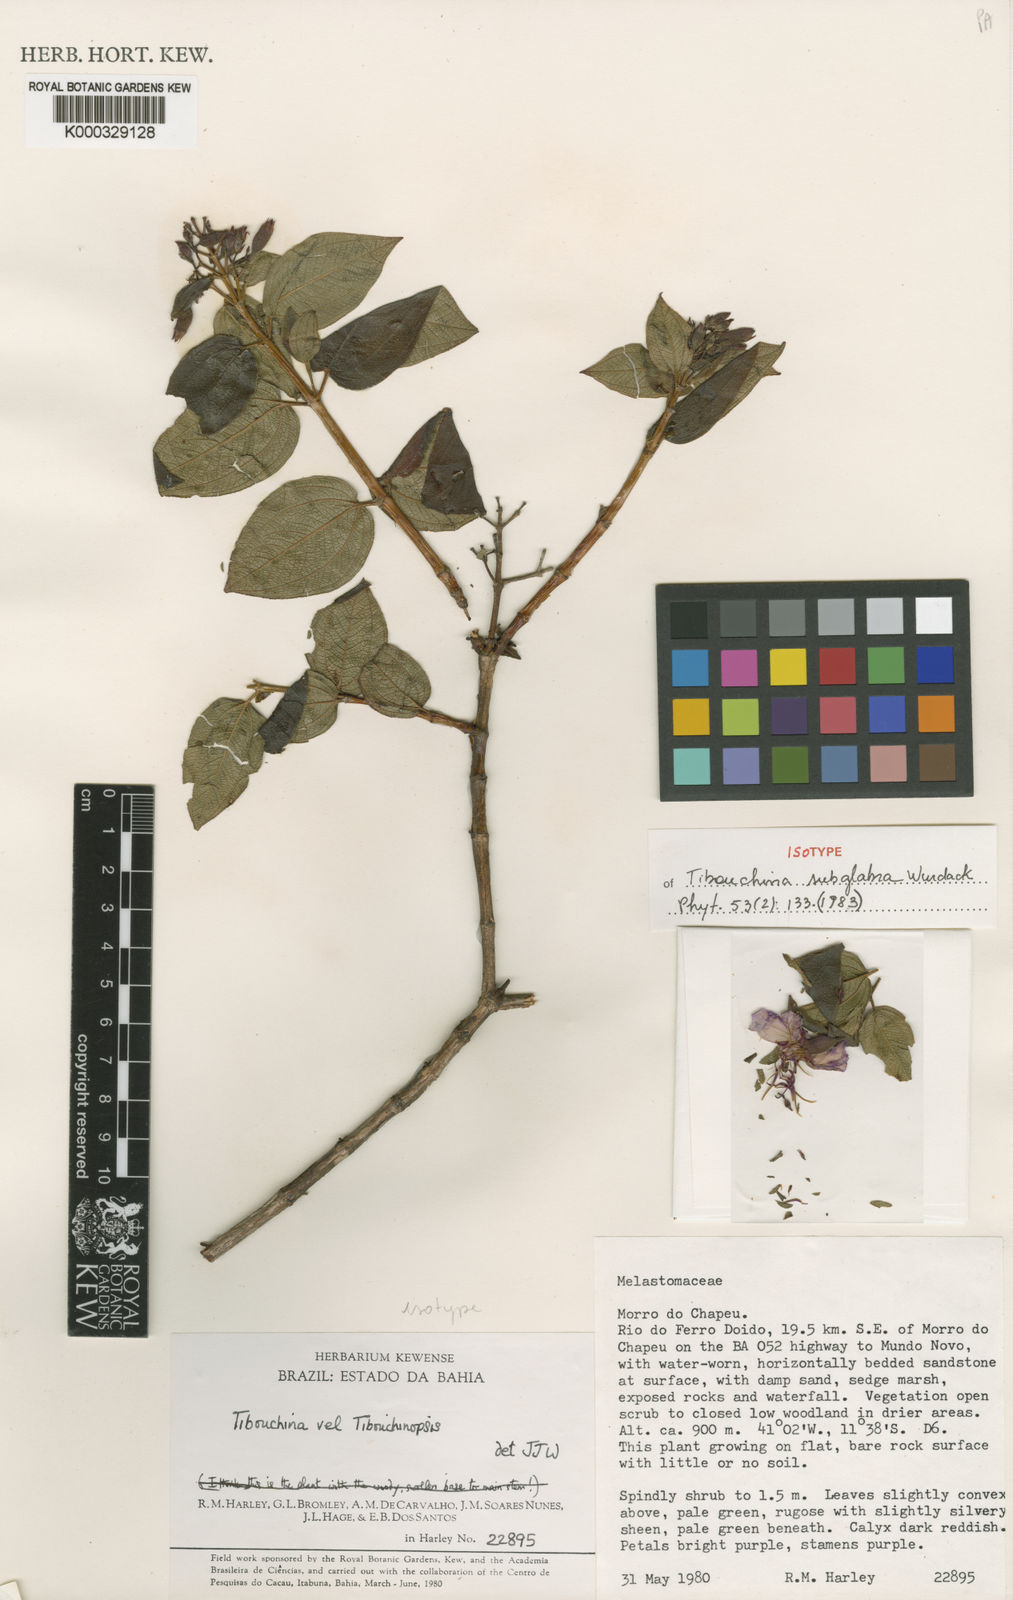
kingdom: Plantae
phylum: Tracheophyta
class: Magnoliopsida
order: Myrtales
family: Melastomataceae
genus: Pleroma
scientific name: Pleroma subglabrum
